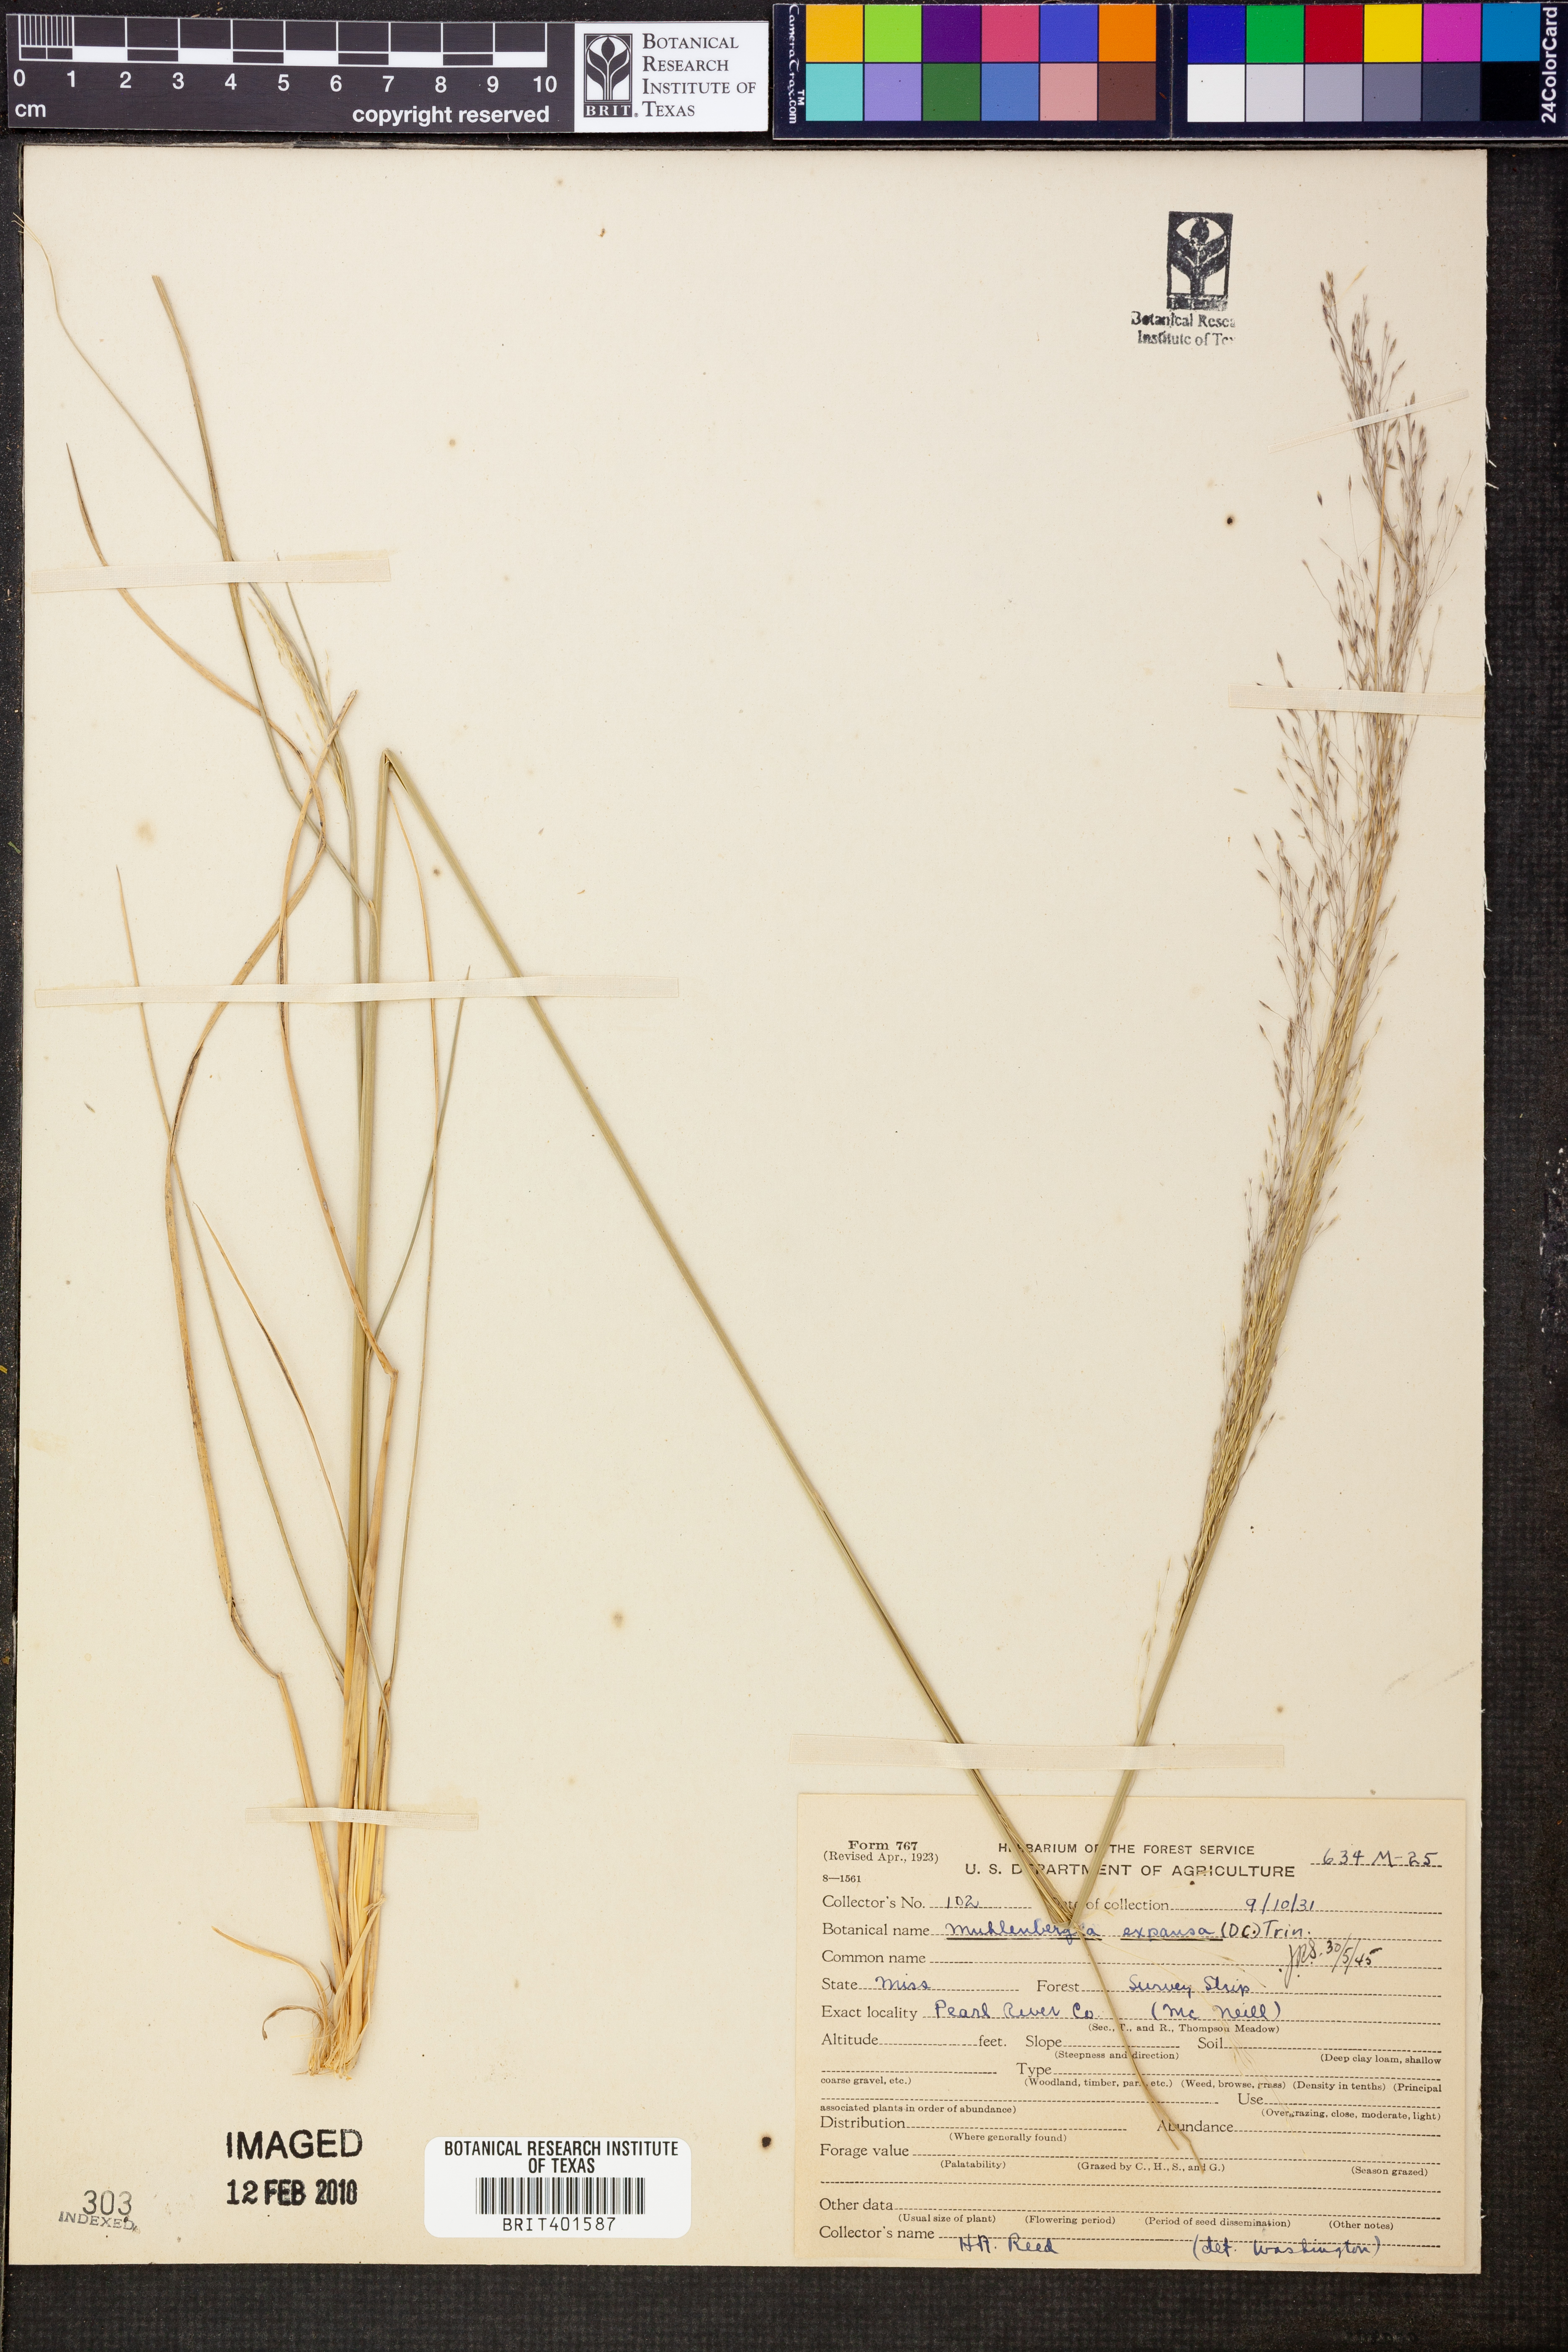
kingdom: Plantae
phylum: Tracheophyta
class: Liliopsida
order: Poales
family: Poaceae
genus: Muhlenbergia
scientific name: Muhlenbergia expansa
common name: Savannah hairgrass
